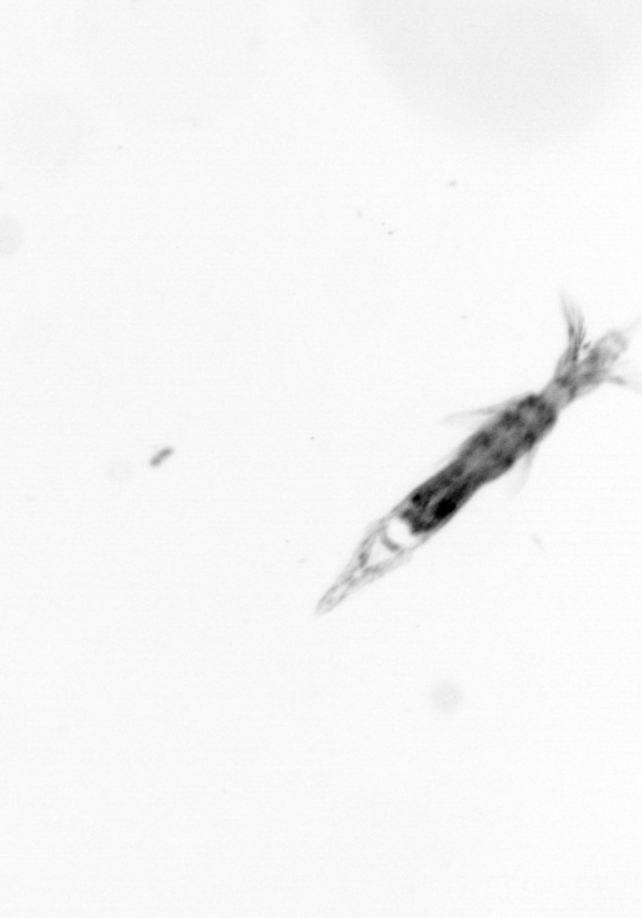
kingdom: Animalia
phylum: Arthropoda
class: Copepoda
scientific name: Copepoda
